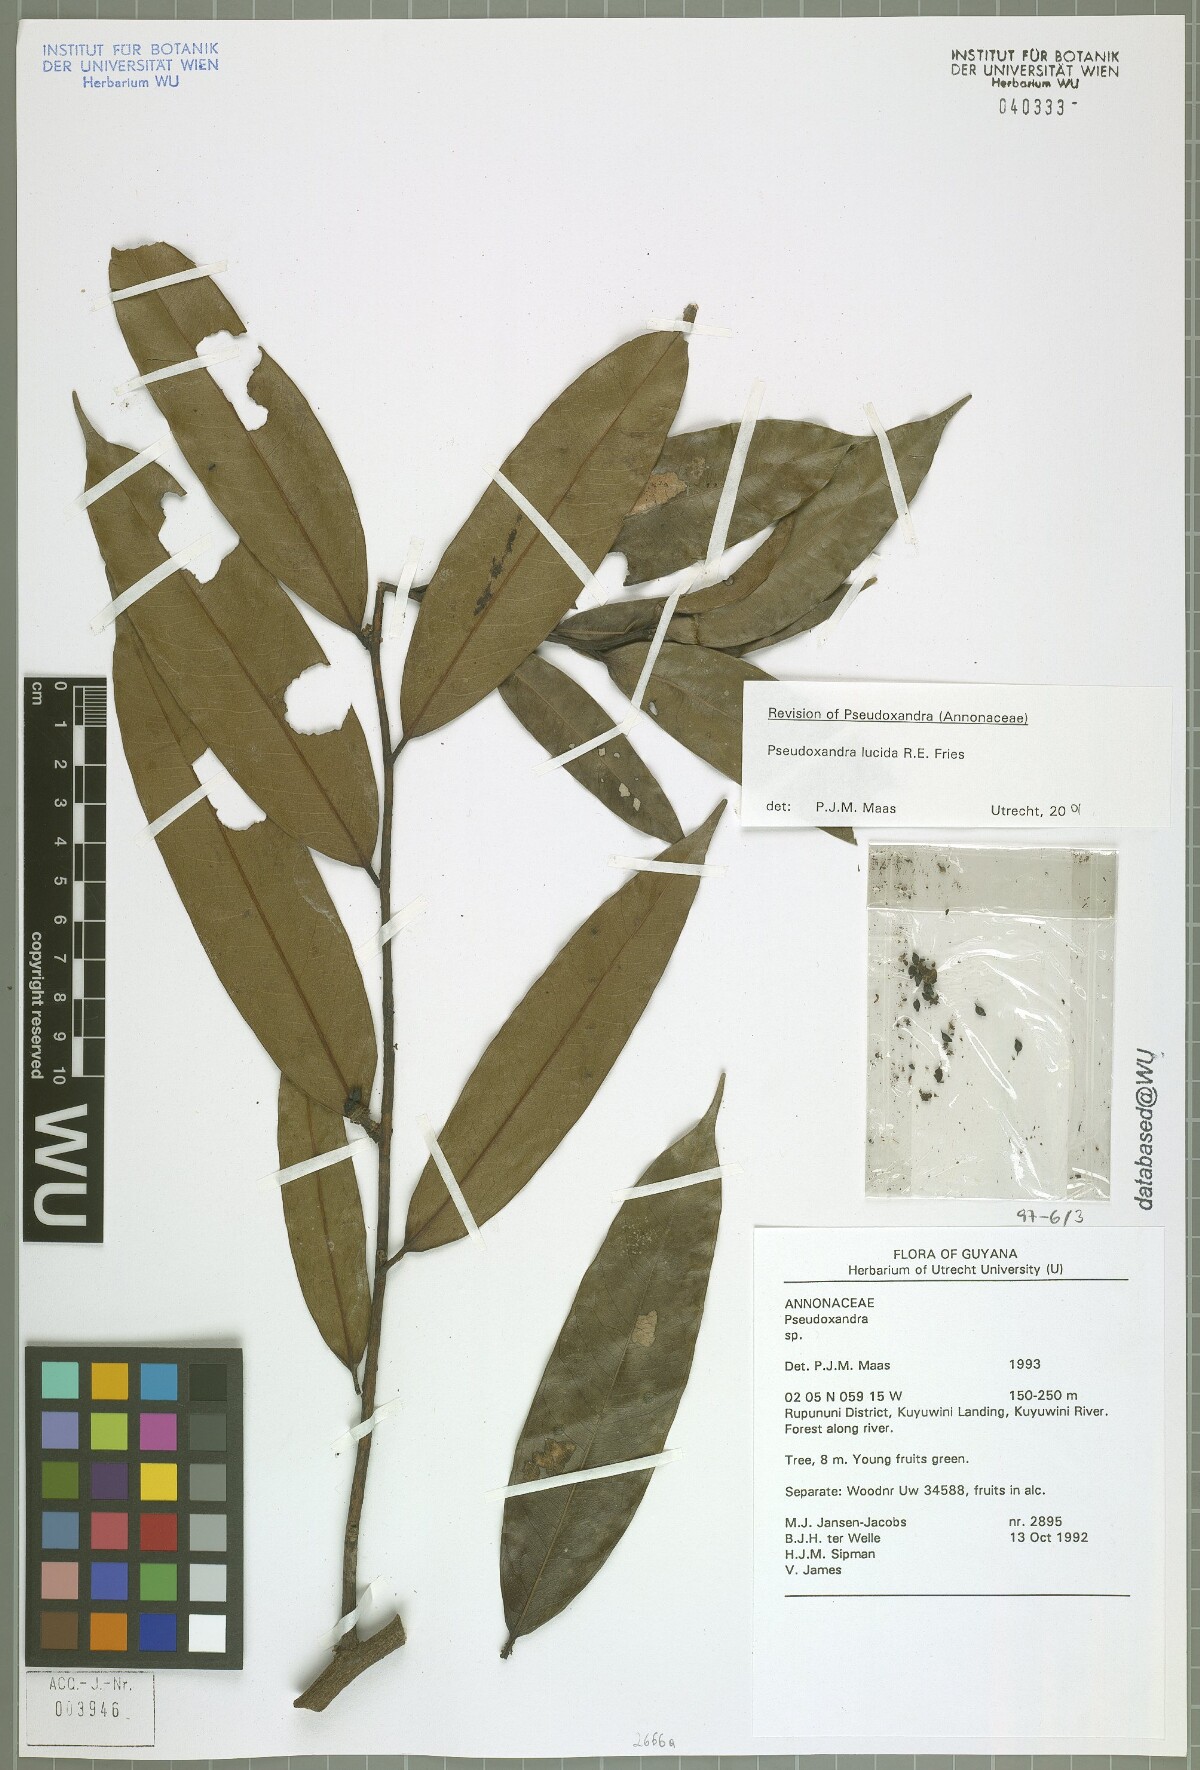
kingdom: Plantae
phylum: Tracheophyta
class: Magnoliopsida
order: Magnoliales
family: Annonaceae
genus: Pseudoxandra
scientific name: Pseudoxandra lucida
